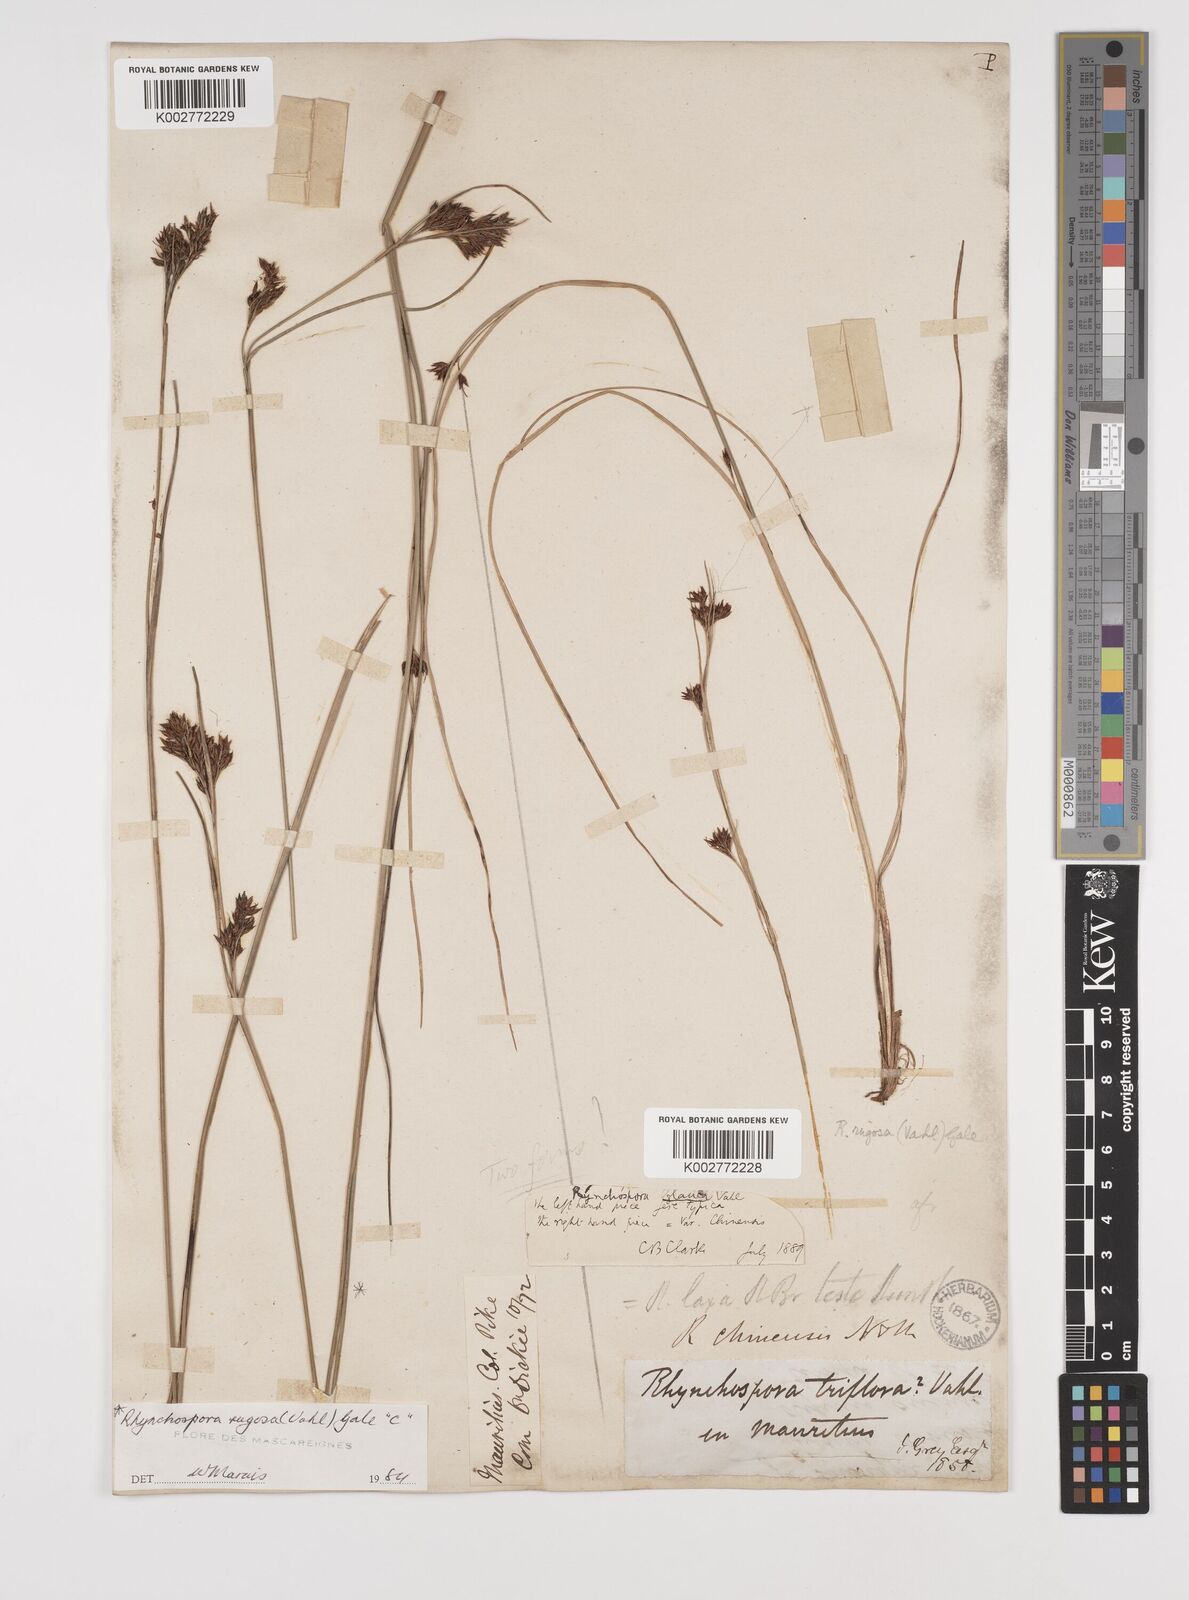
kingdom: Plantae
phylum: Tracheophyta
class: Liliopsida
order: Poales
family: Cyperaceae
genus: Rhynchospora
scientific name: Rhynchospora rugosa
